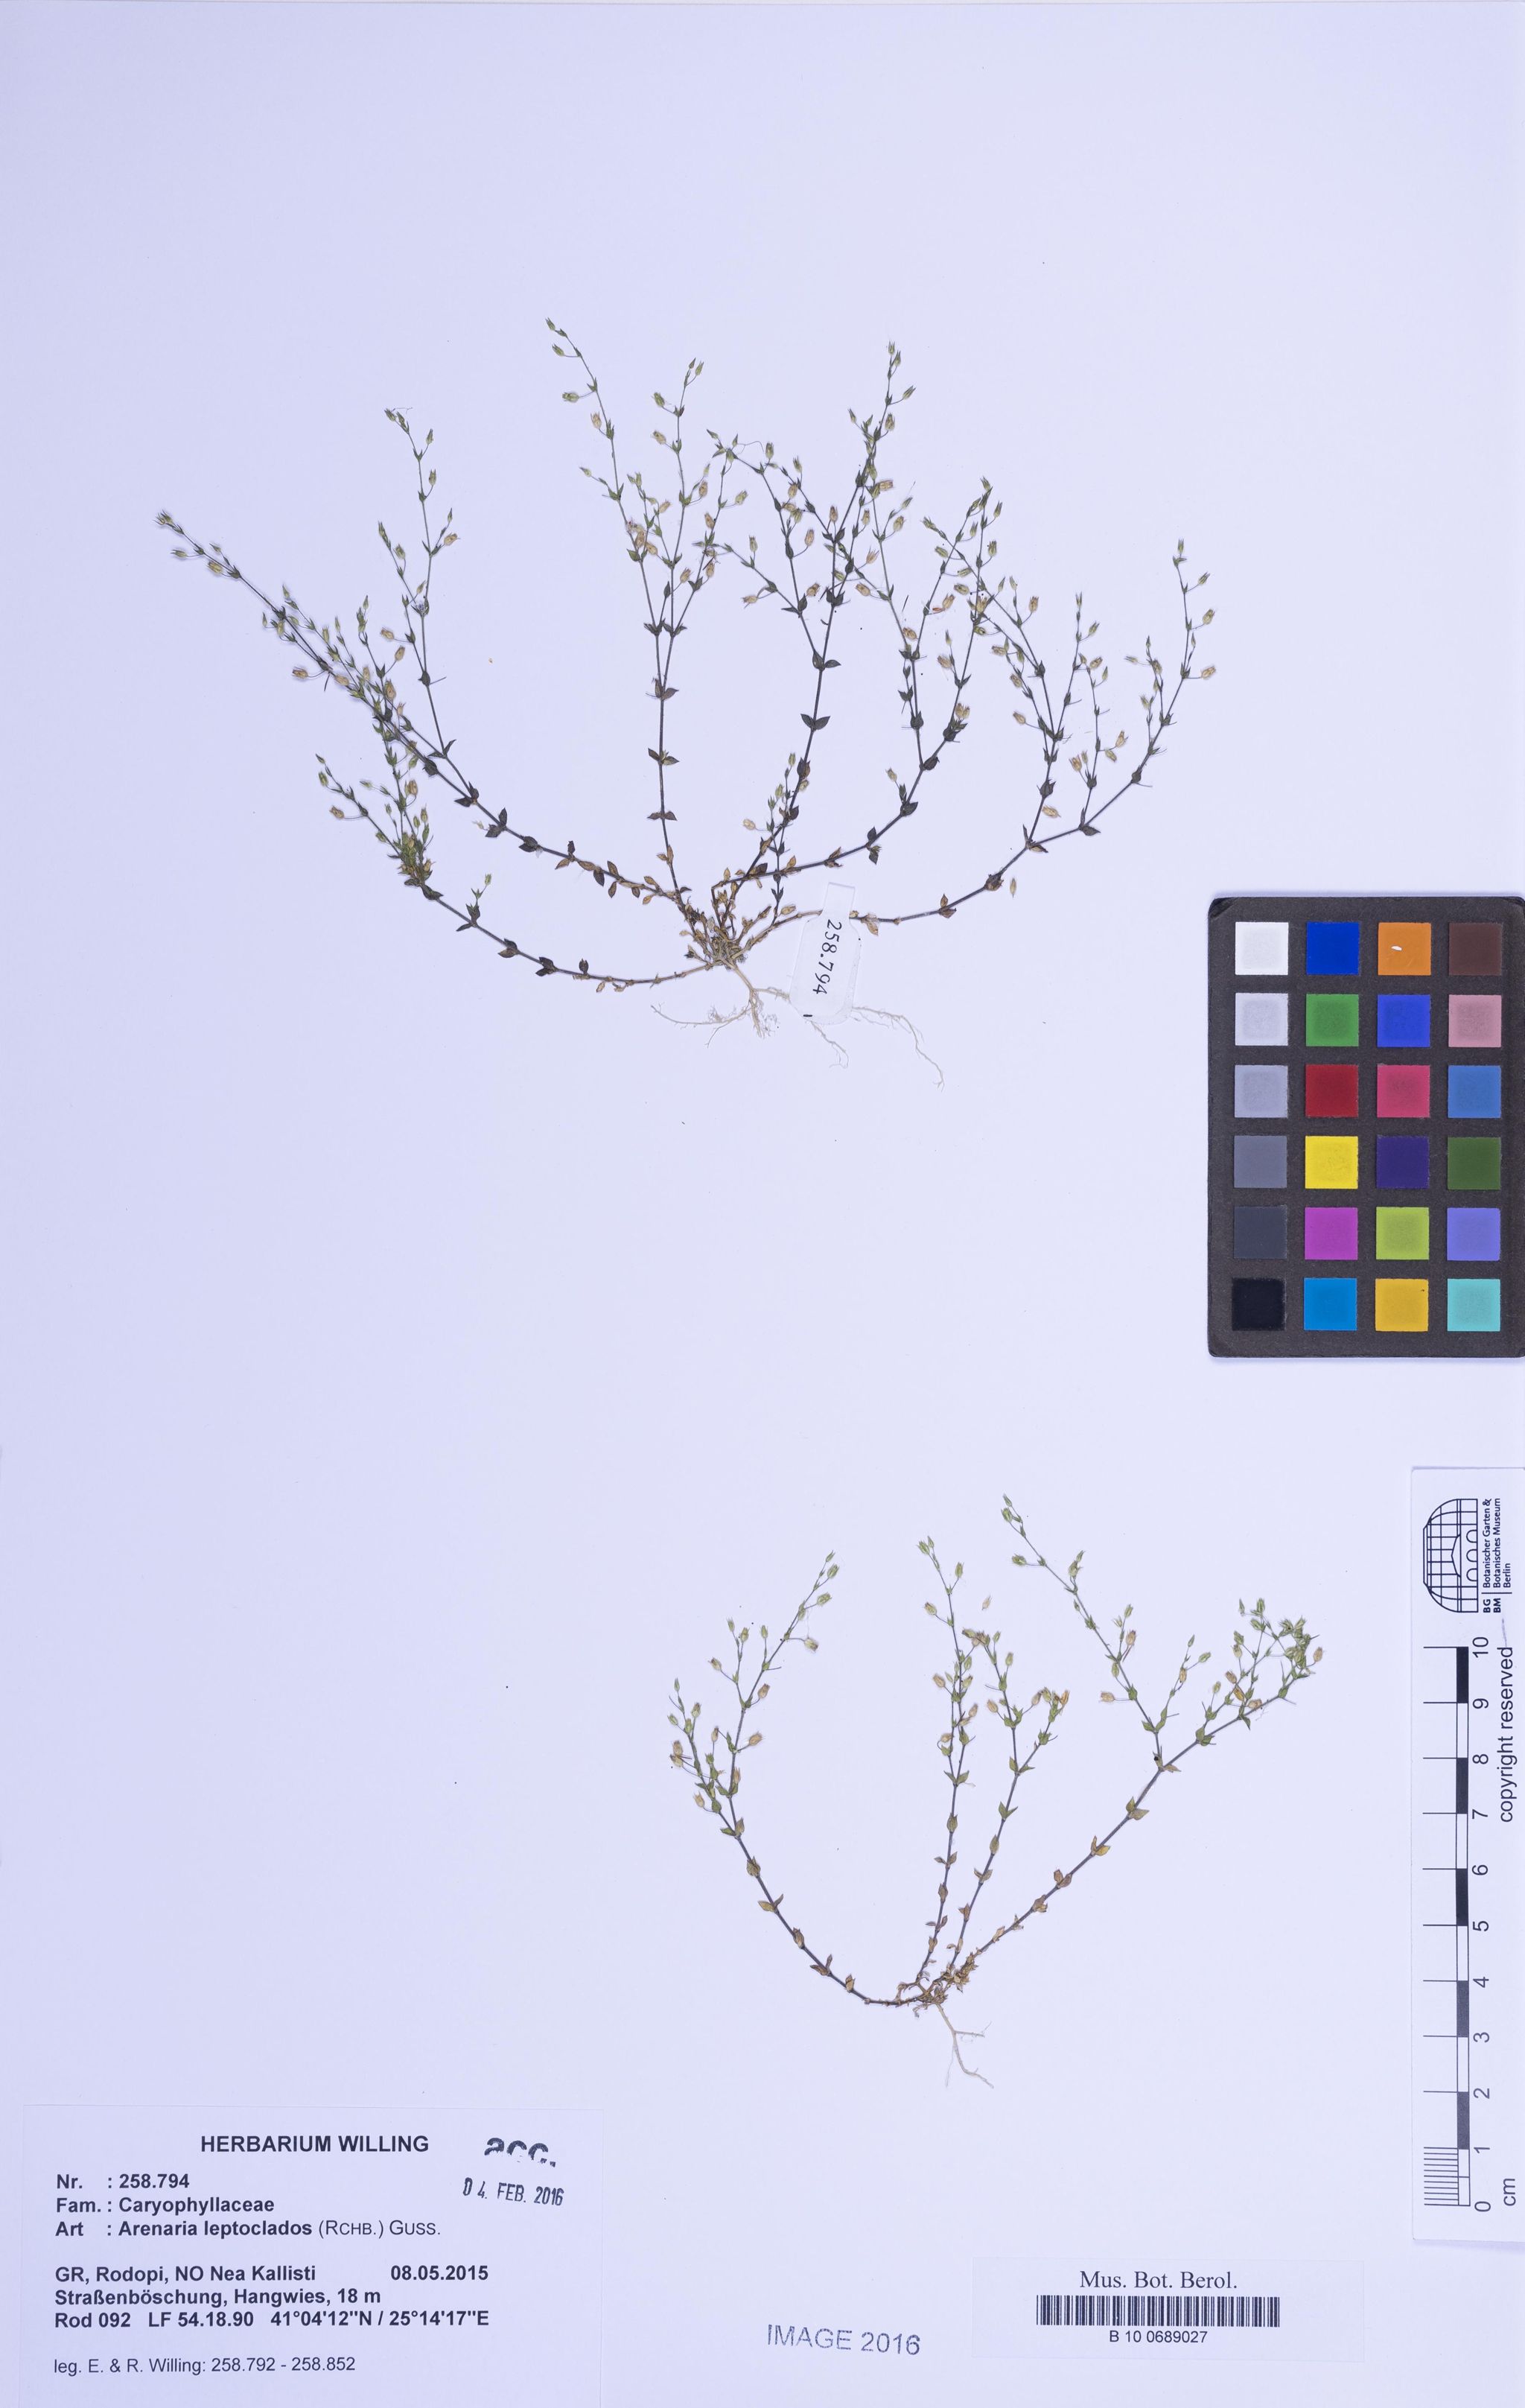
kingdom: Plantae
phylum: Tracheophyta
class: Magnoliopsida
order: Caryophyllales
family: Caryophyllaceae
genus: Arenaria
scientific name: Arenaria leptoclados
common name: Thyme-leaved sandwort
